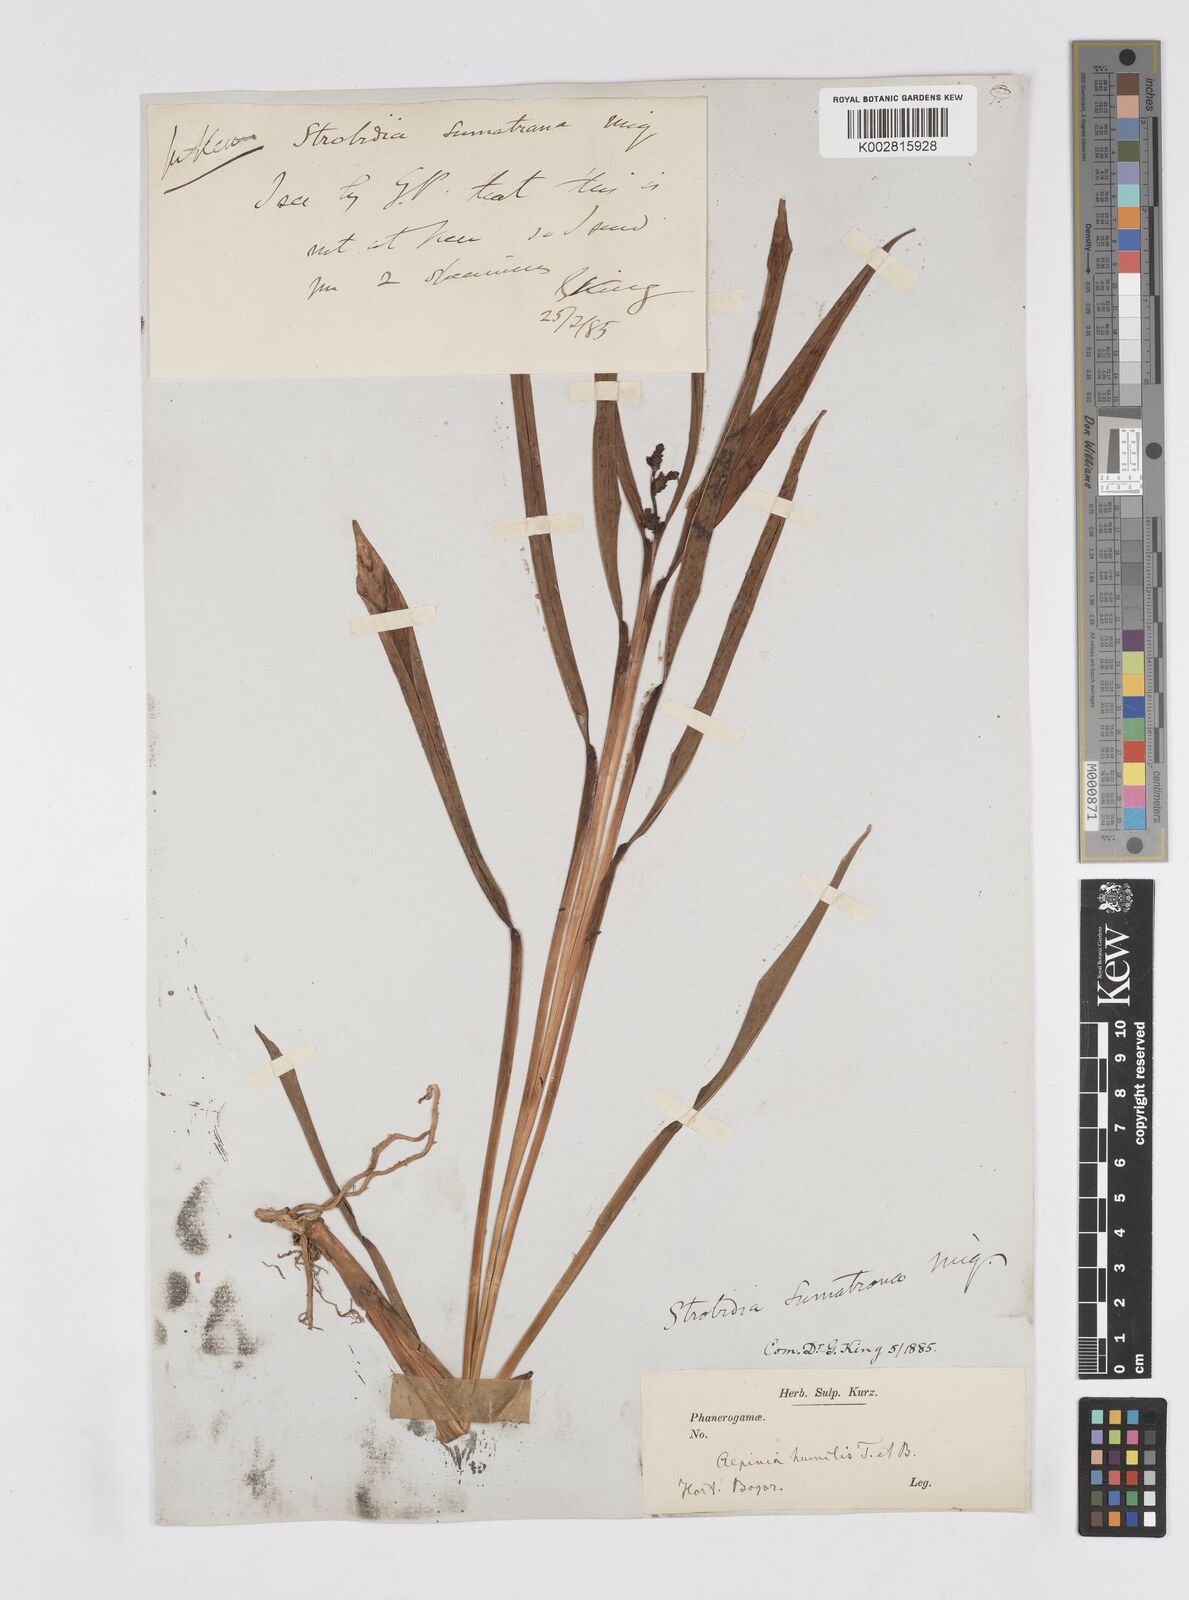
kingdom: Plantae
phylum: Tracheophyta
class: Liliopsida
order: Zingiberales
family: Zingiberaceae
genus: Alpinia
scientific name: Alpinia conchigera
